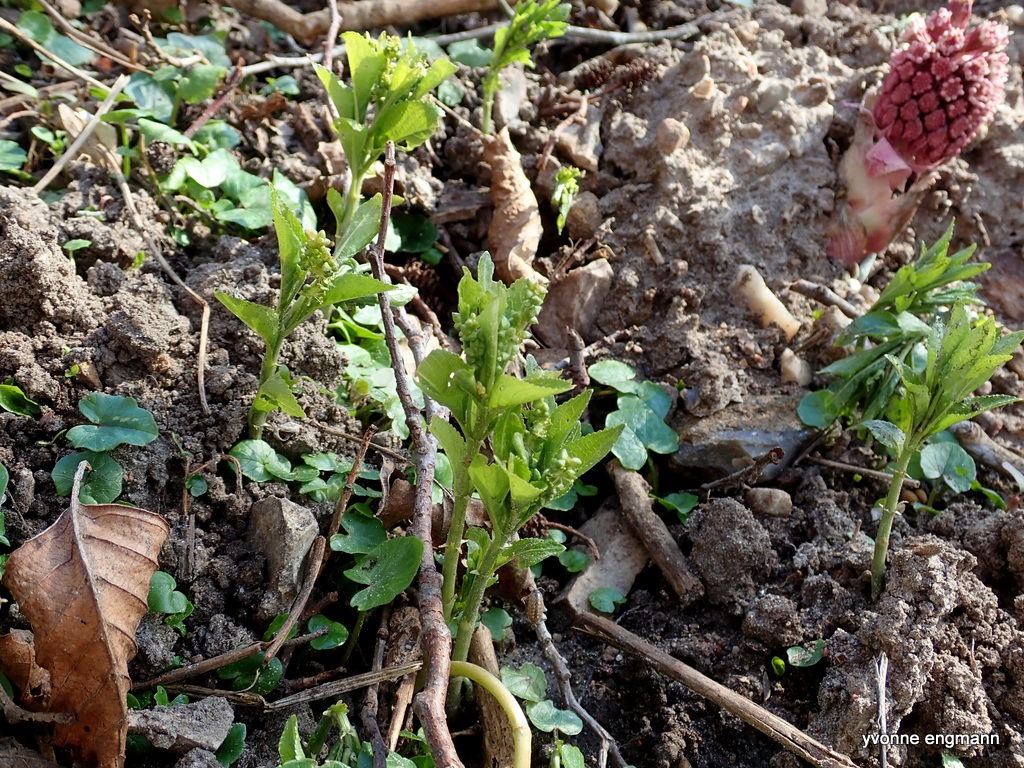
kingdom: Plantae
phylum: Tracheophyta
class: Magnoliopsida
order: Malpighiales
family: Euphorbiaceae
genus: Mercurialis
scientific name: Mercurialis perennis
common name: Almindelig bingelurt
